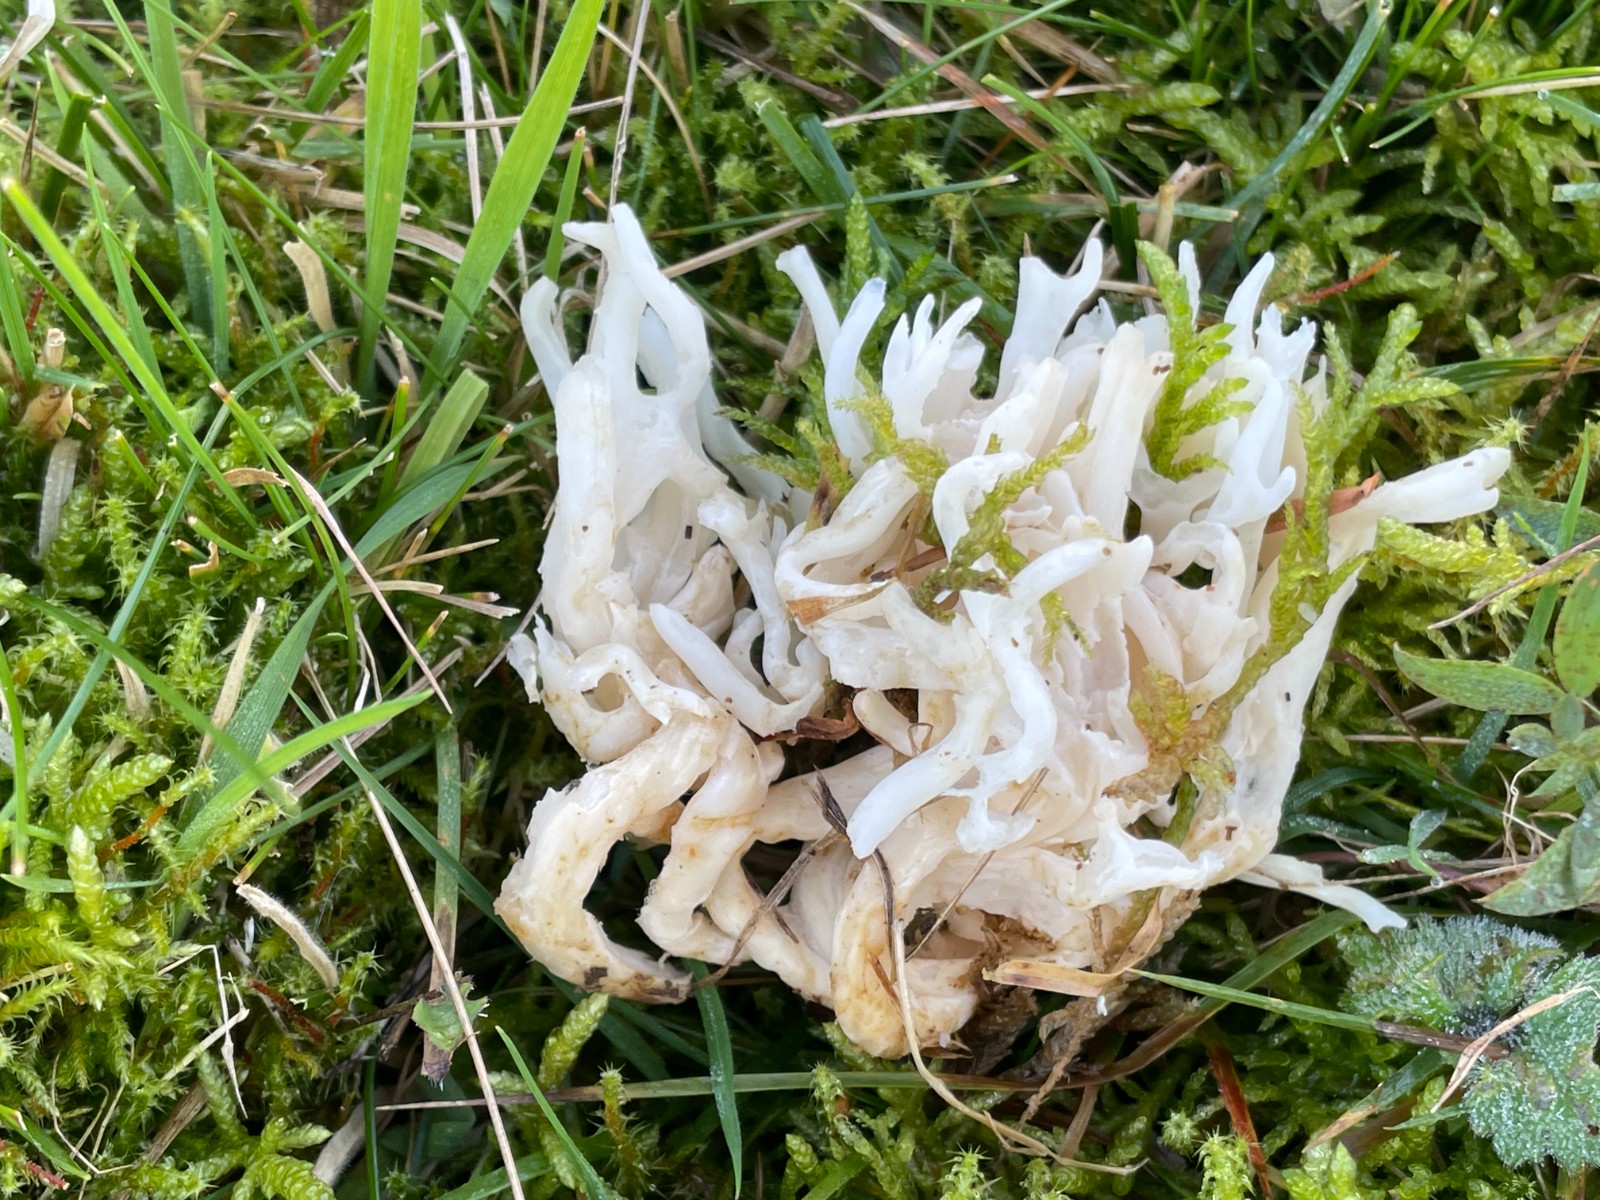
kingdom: Fungi
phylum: Basidiomycota
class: Agaricomycetes
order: Agaricales
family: Clavariaceae
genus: Ramariopsis
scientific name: Ramariopsis robusta
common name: tykgrenet køllesvamp
